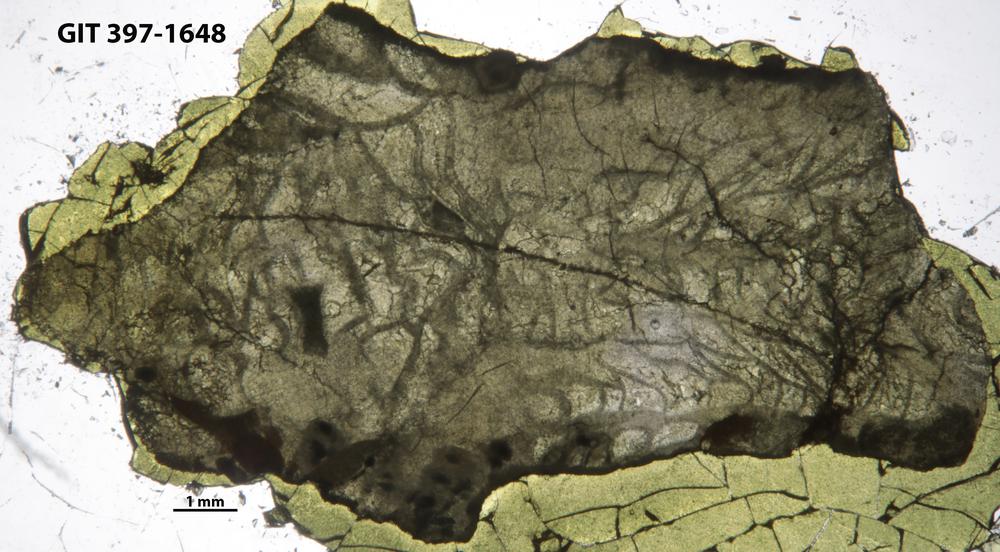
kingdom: Animalia
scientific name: Animalia
